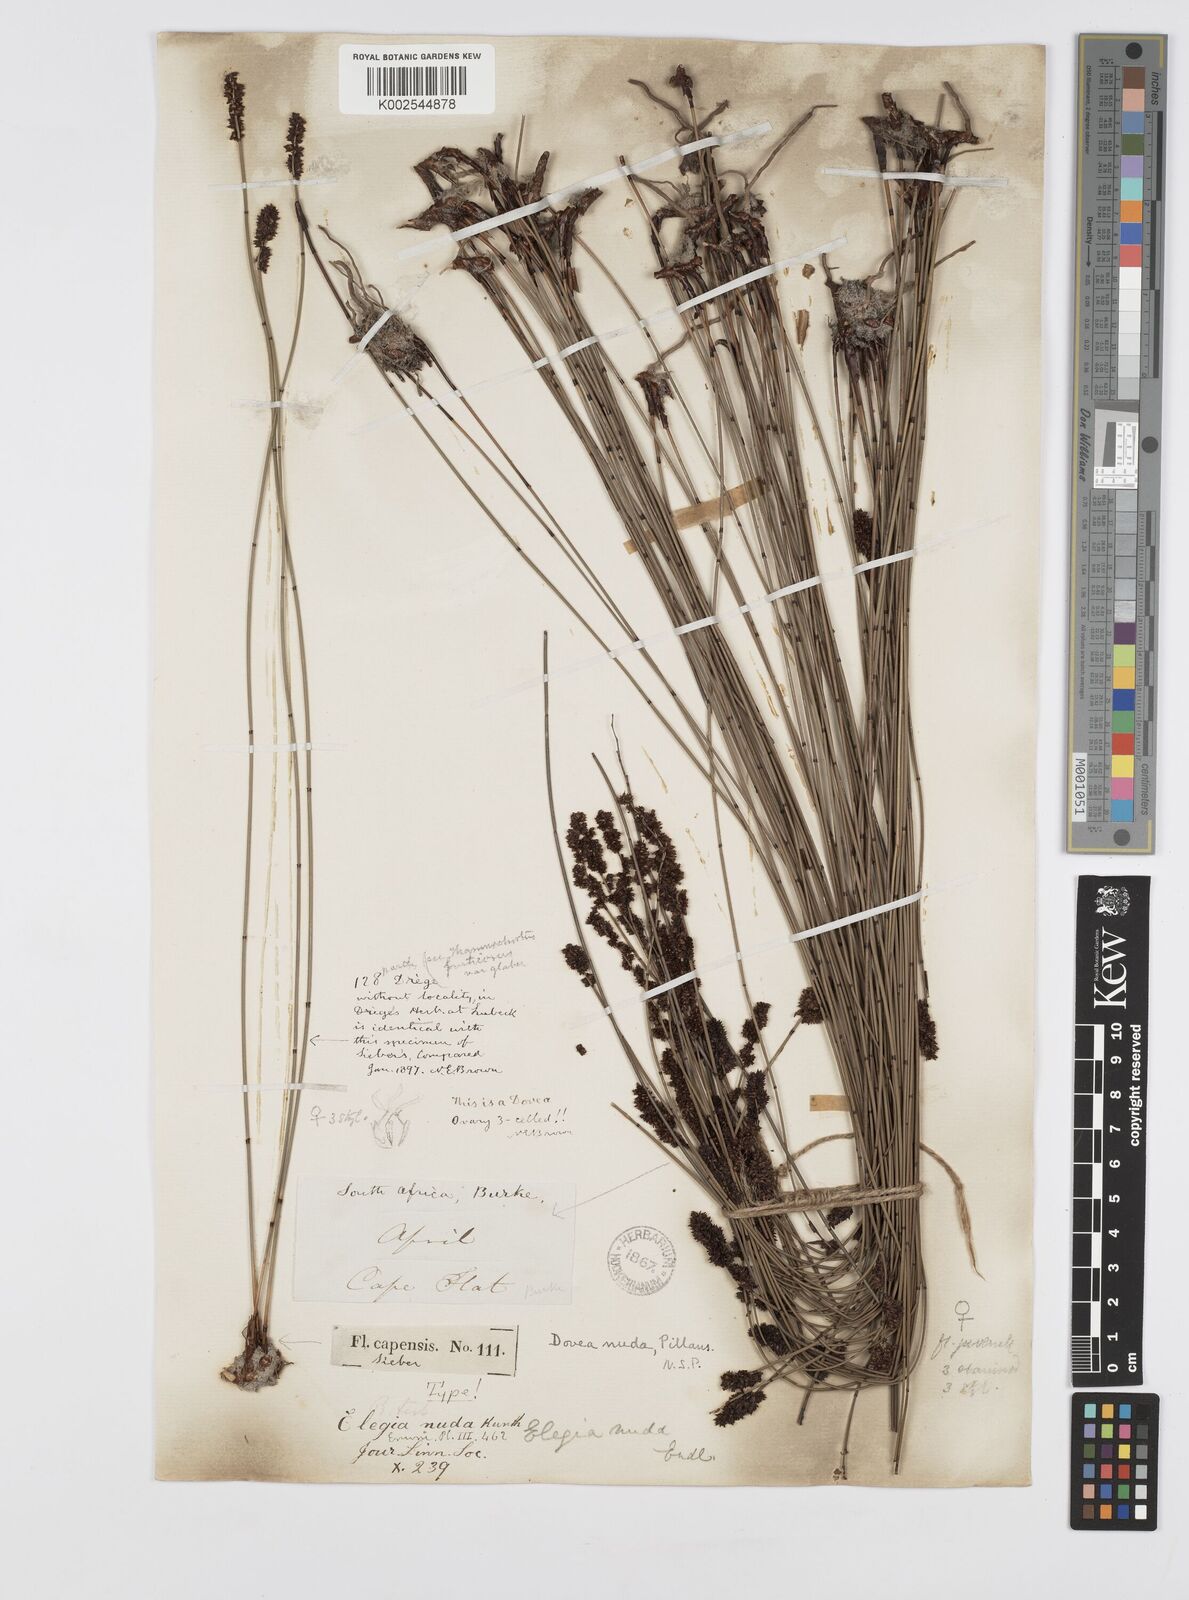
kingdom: Plantae
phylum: Tracheophyta
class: Liliopsida
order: Poales
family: Restionaceae
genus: Elegia
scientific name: Elegia nuda
